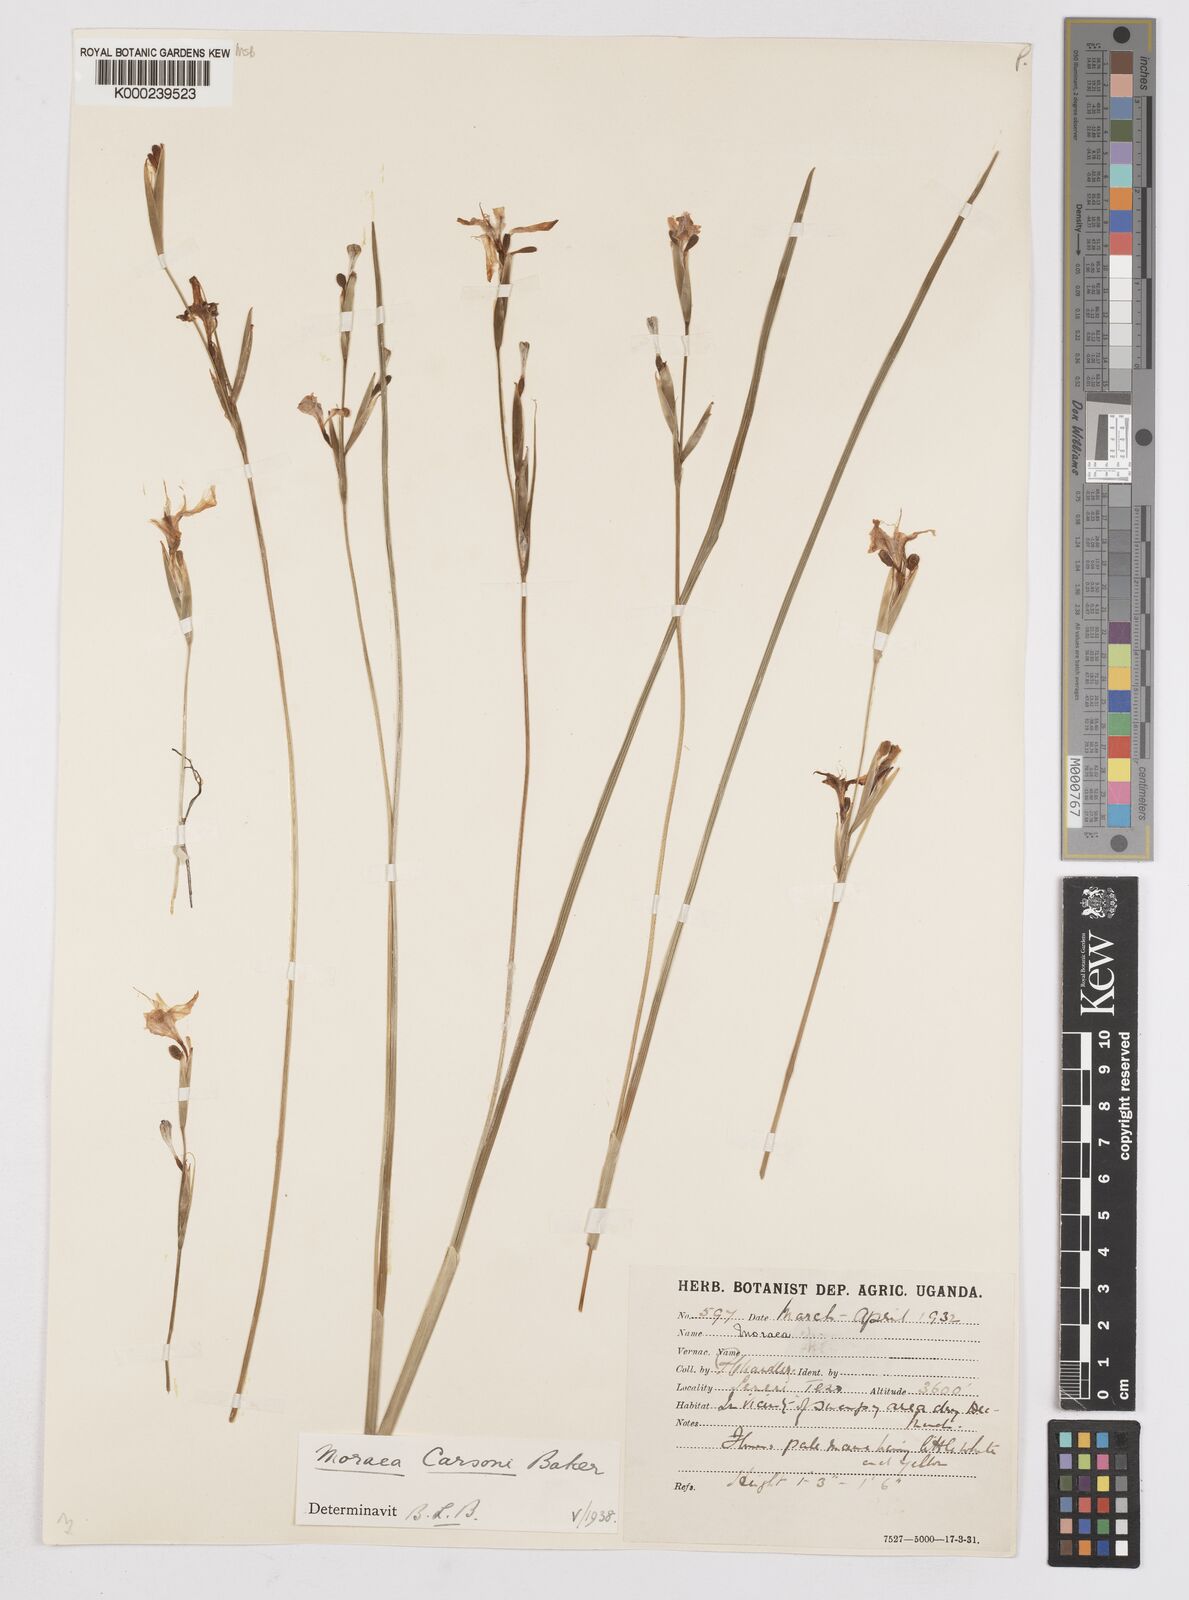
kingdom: Plantae
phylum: Tracheophyta
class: Liliopsida
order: Asparagales
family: Iridaceae
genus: Moraea
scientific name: Moraea
